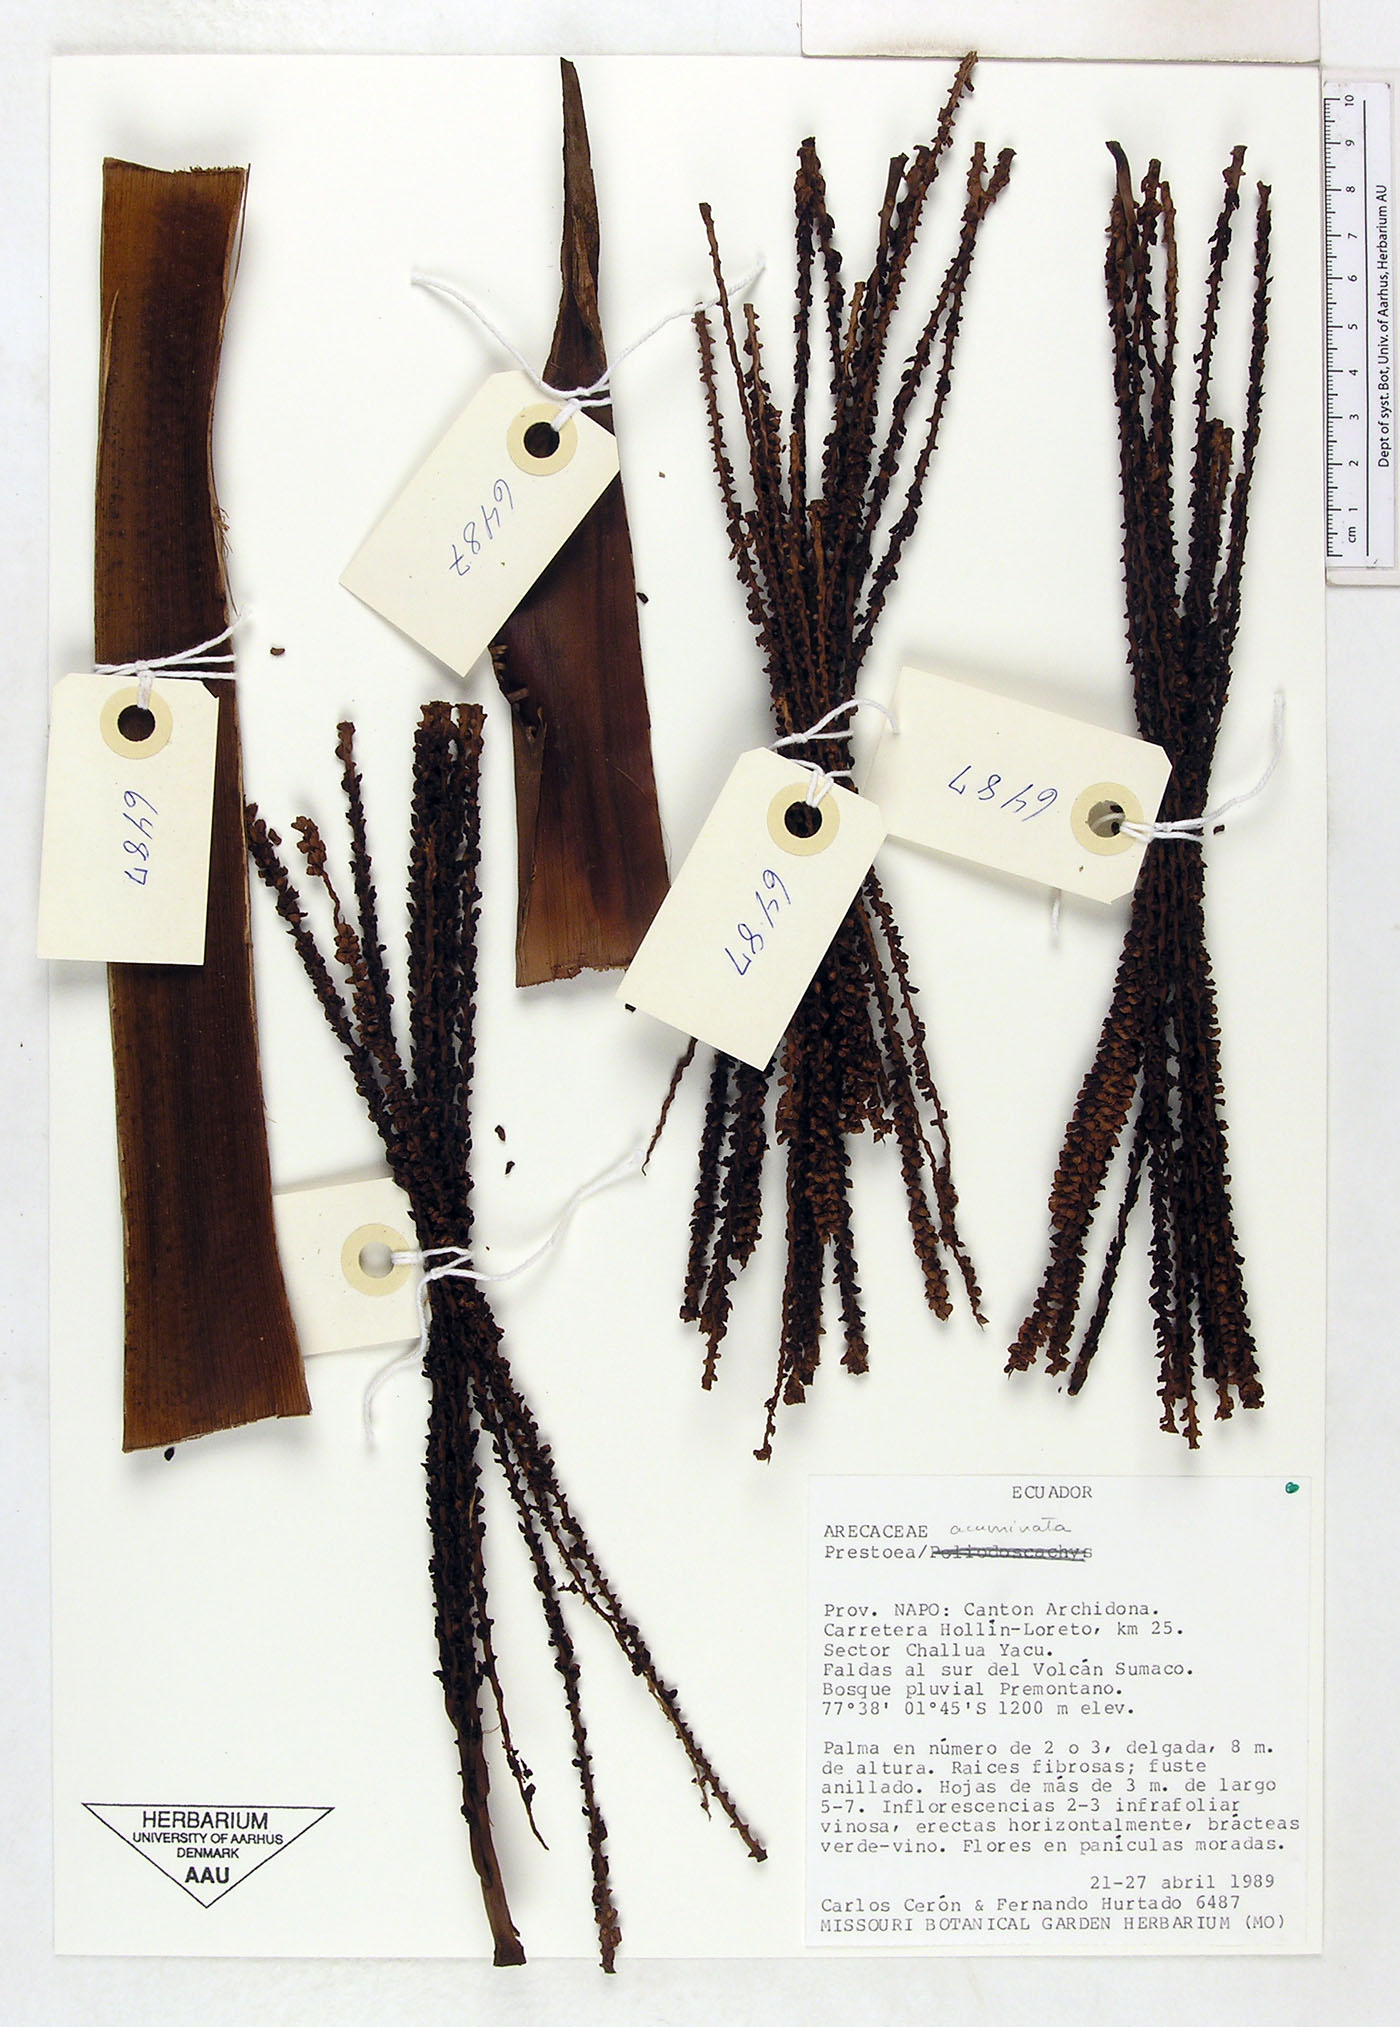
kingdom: Plantae
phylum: Tracheophyta
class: Liliopsida
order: Arecales
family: Arecaceae
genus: Prestoea
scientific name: Prestoea acuminata
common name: Sierran palm
